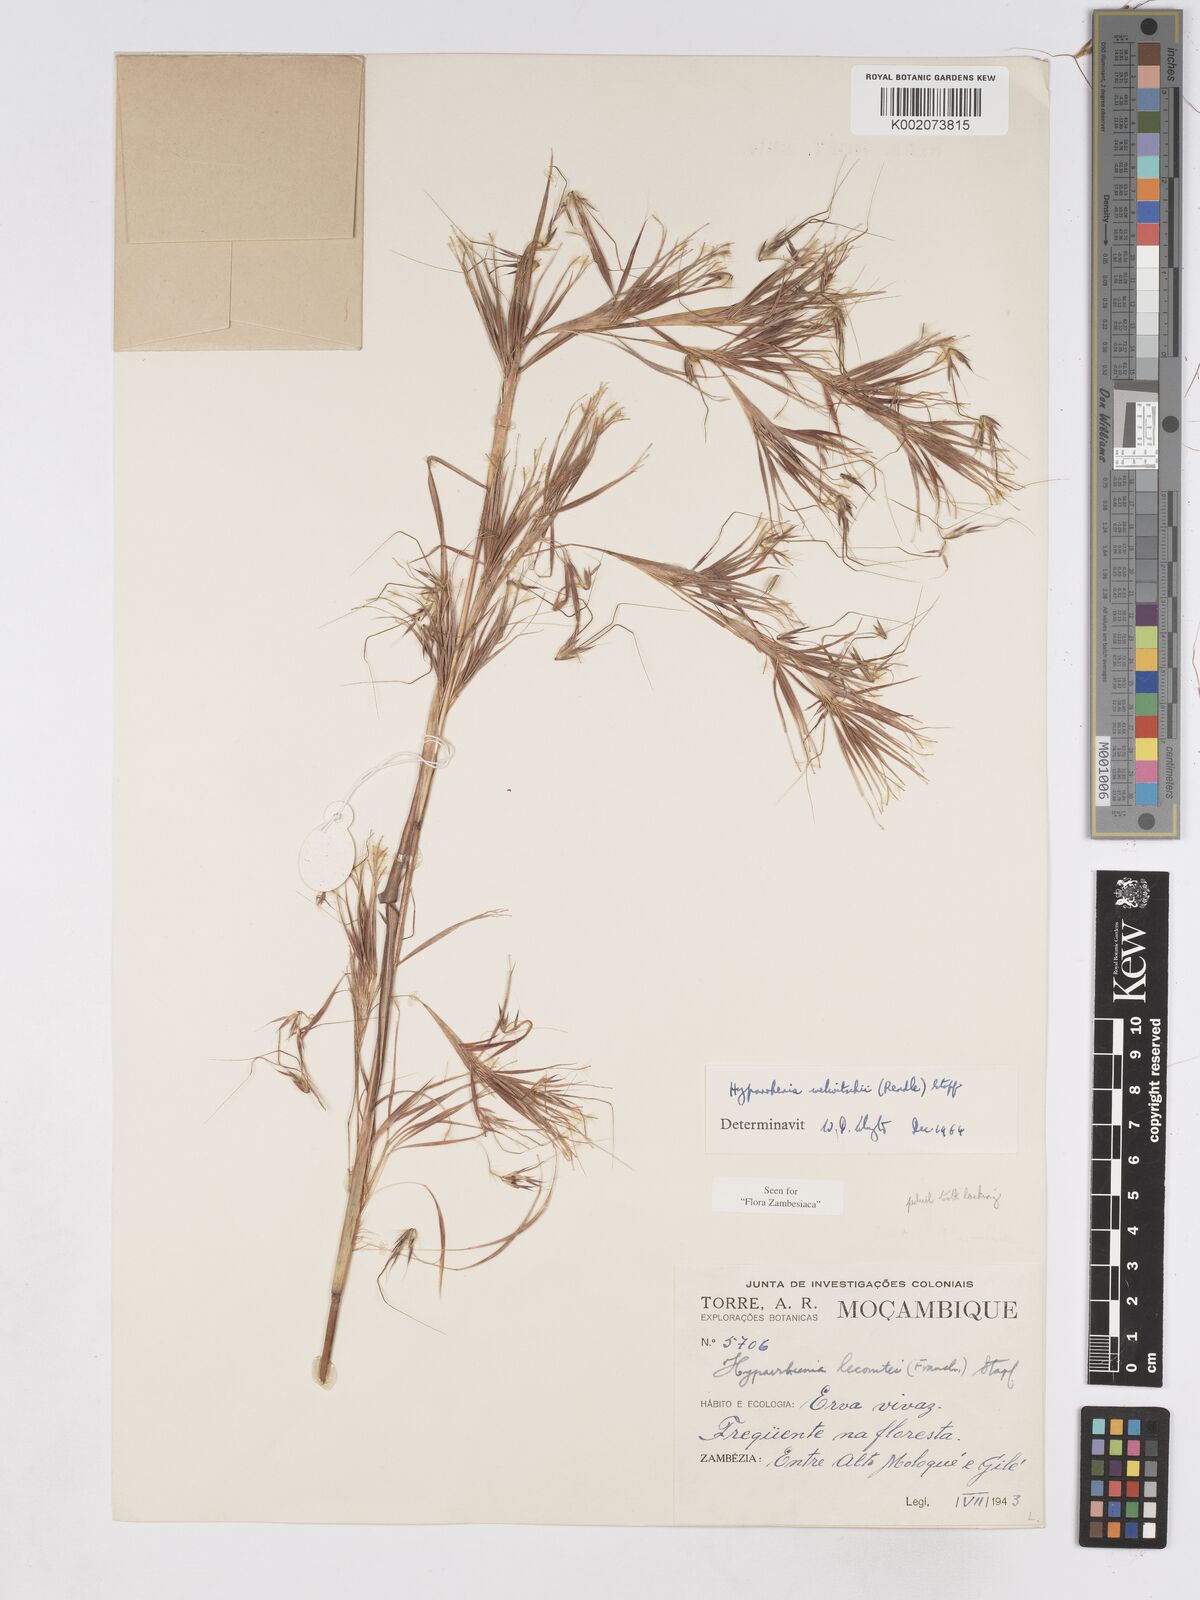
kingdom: Plantae
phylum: Tracheophyta
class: Liliopsida
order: Poales
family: Poaceae
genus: Hyparrhenia
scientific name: Hyparrhenia welwitschii
